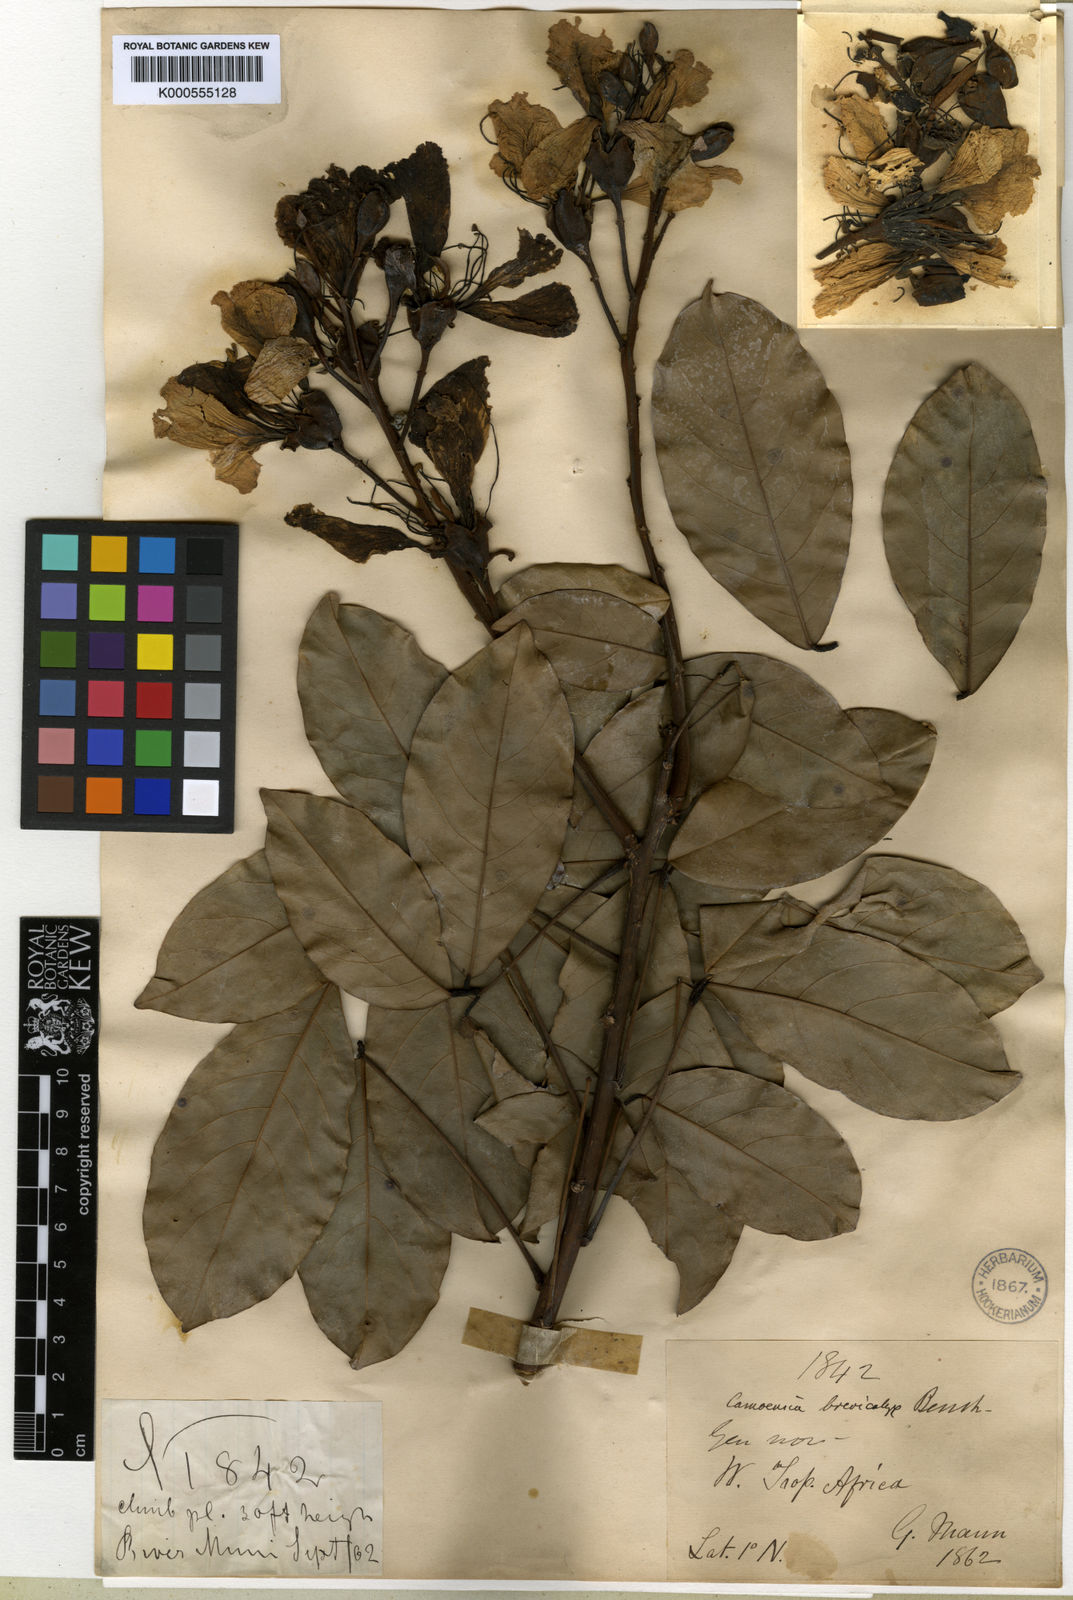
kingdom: Plantae
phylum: Tracheophyta
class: Magnoliopsida
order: Fabales
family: Fabaceae
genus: Camoensia
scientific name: Camoensia brevicalyx
